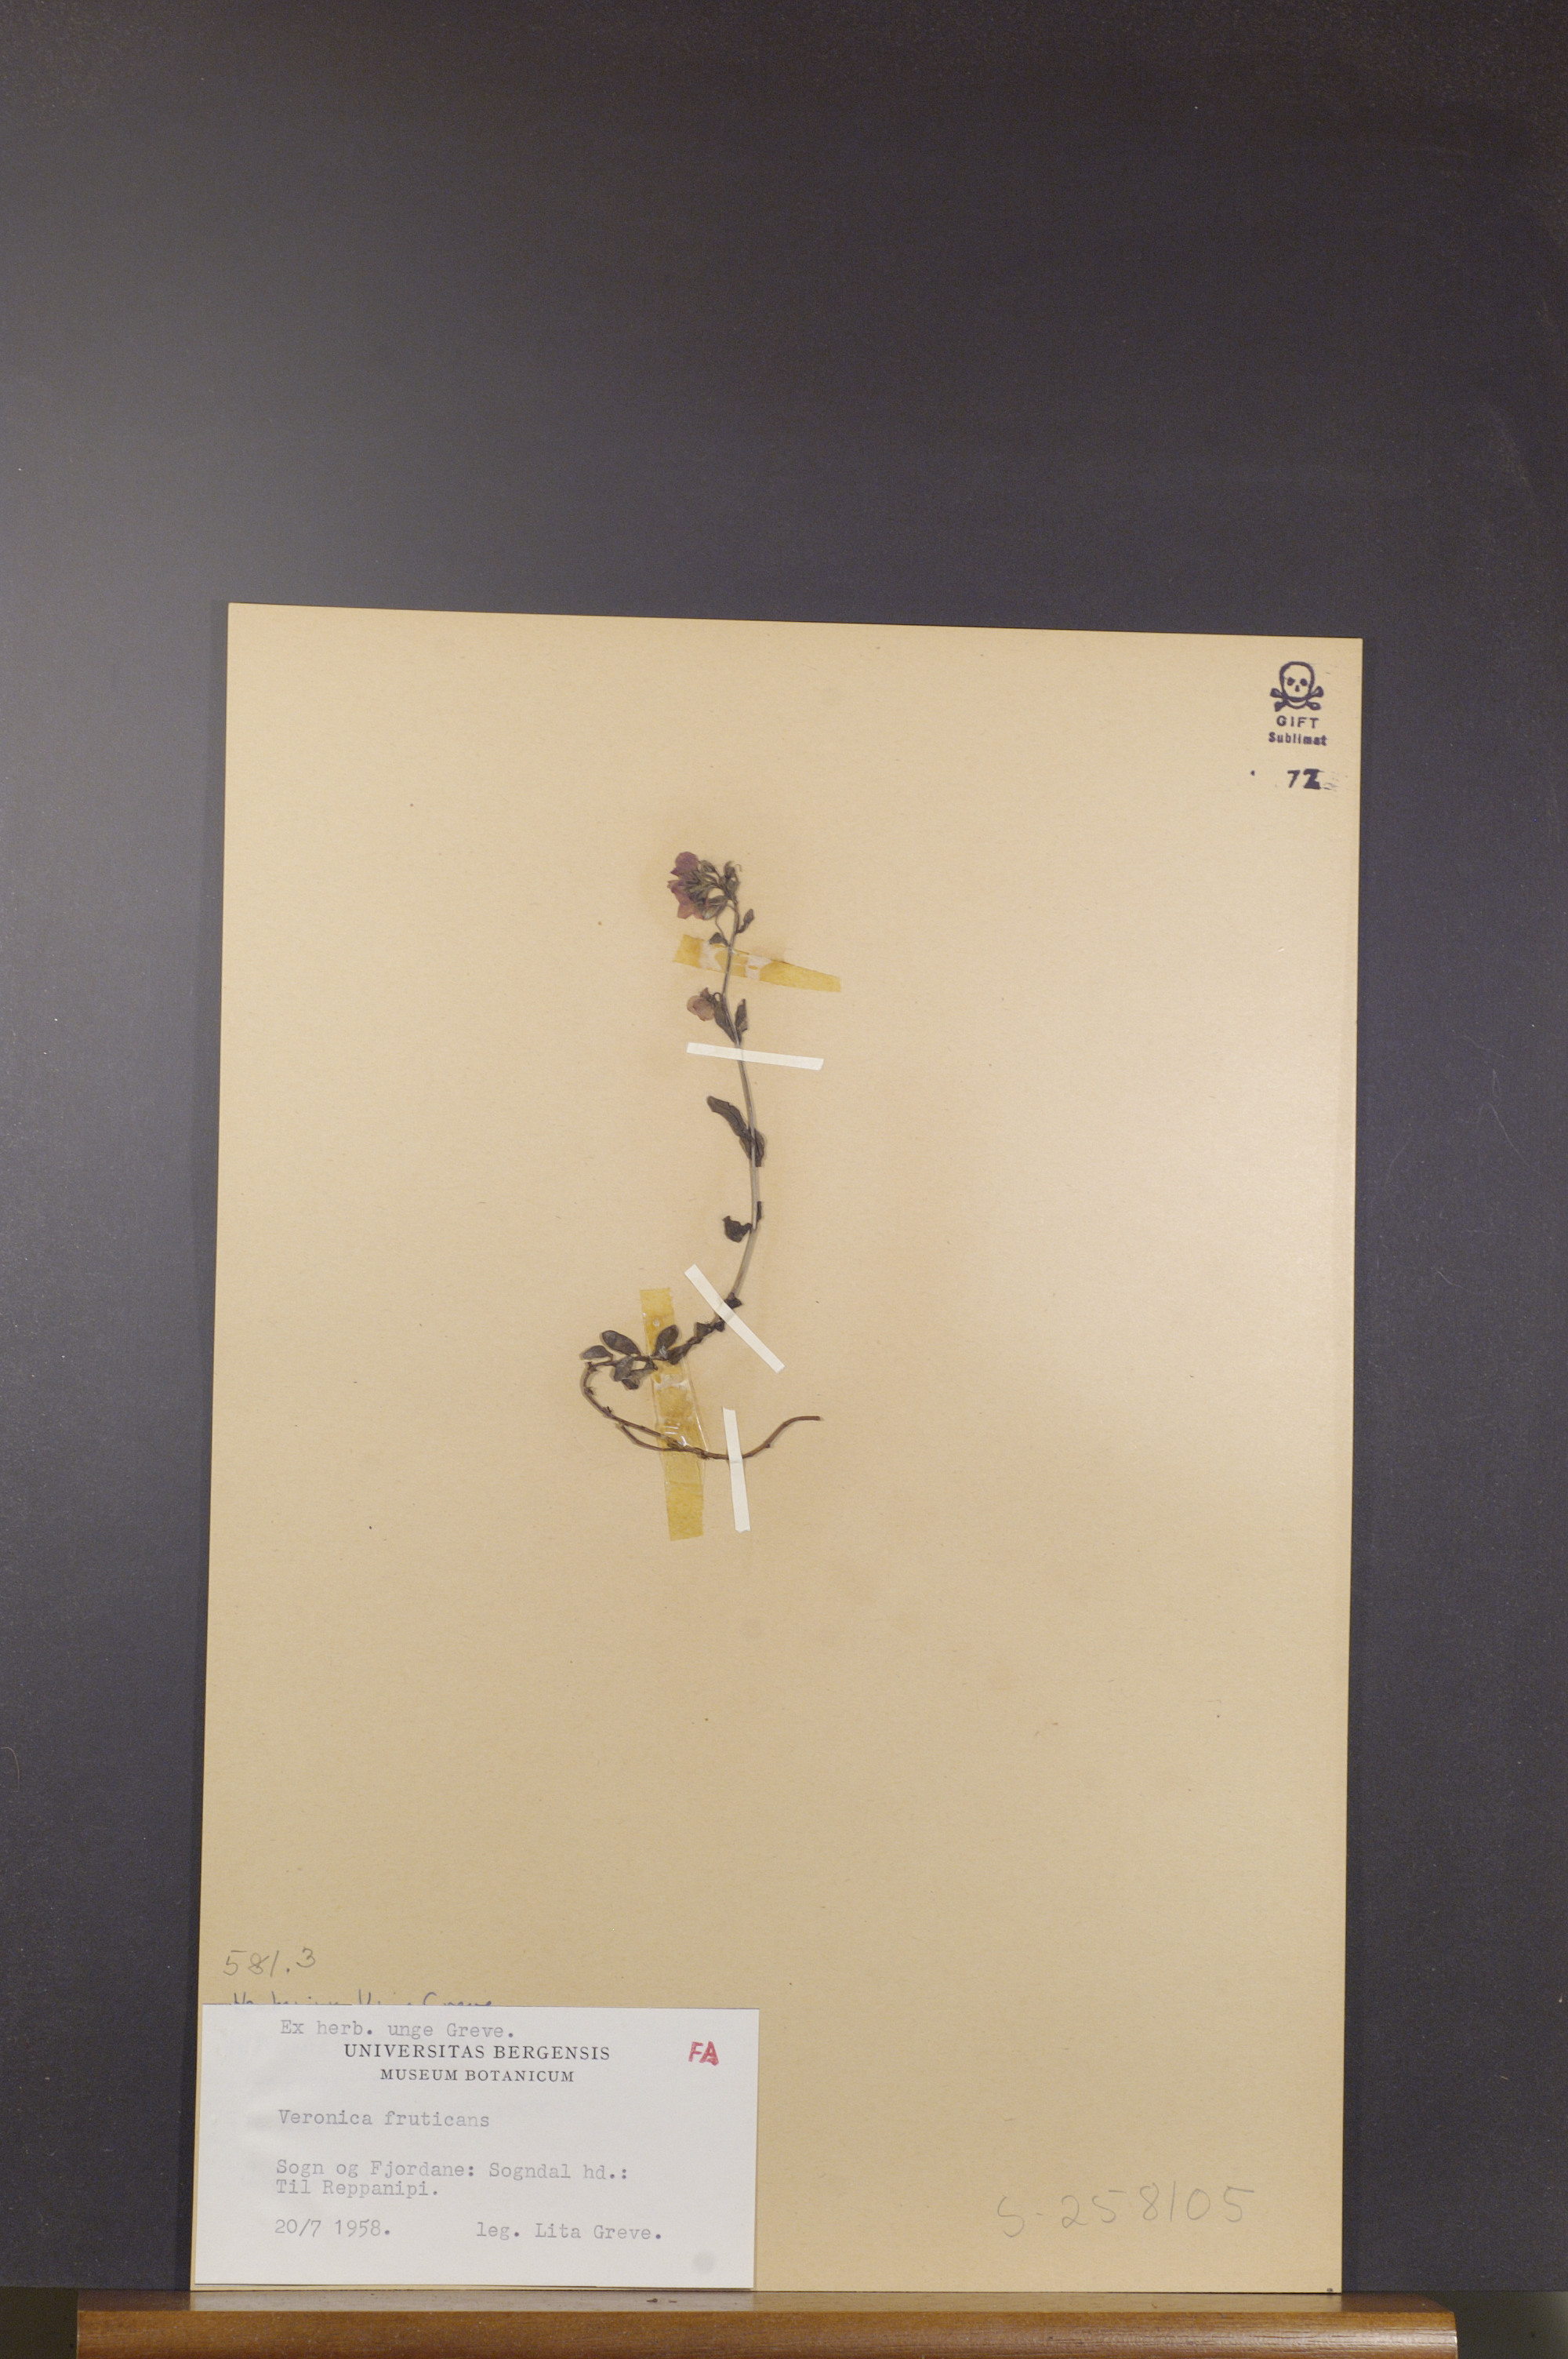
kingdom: Plantae
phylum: Tracheophyta
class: Magnoliopsida
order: Lamiales
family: Plantaginaceae
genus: Veronica
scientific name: Veronica fruticans
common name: Rock speedwell
